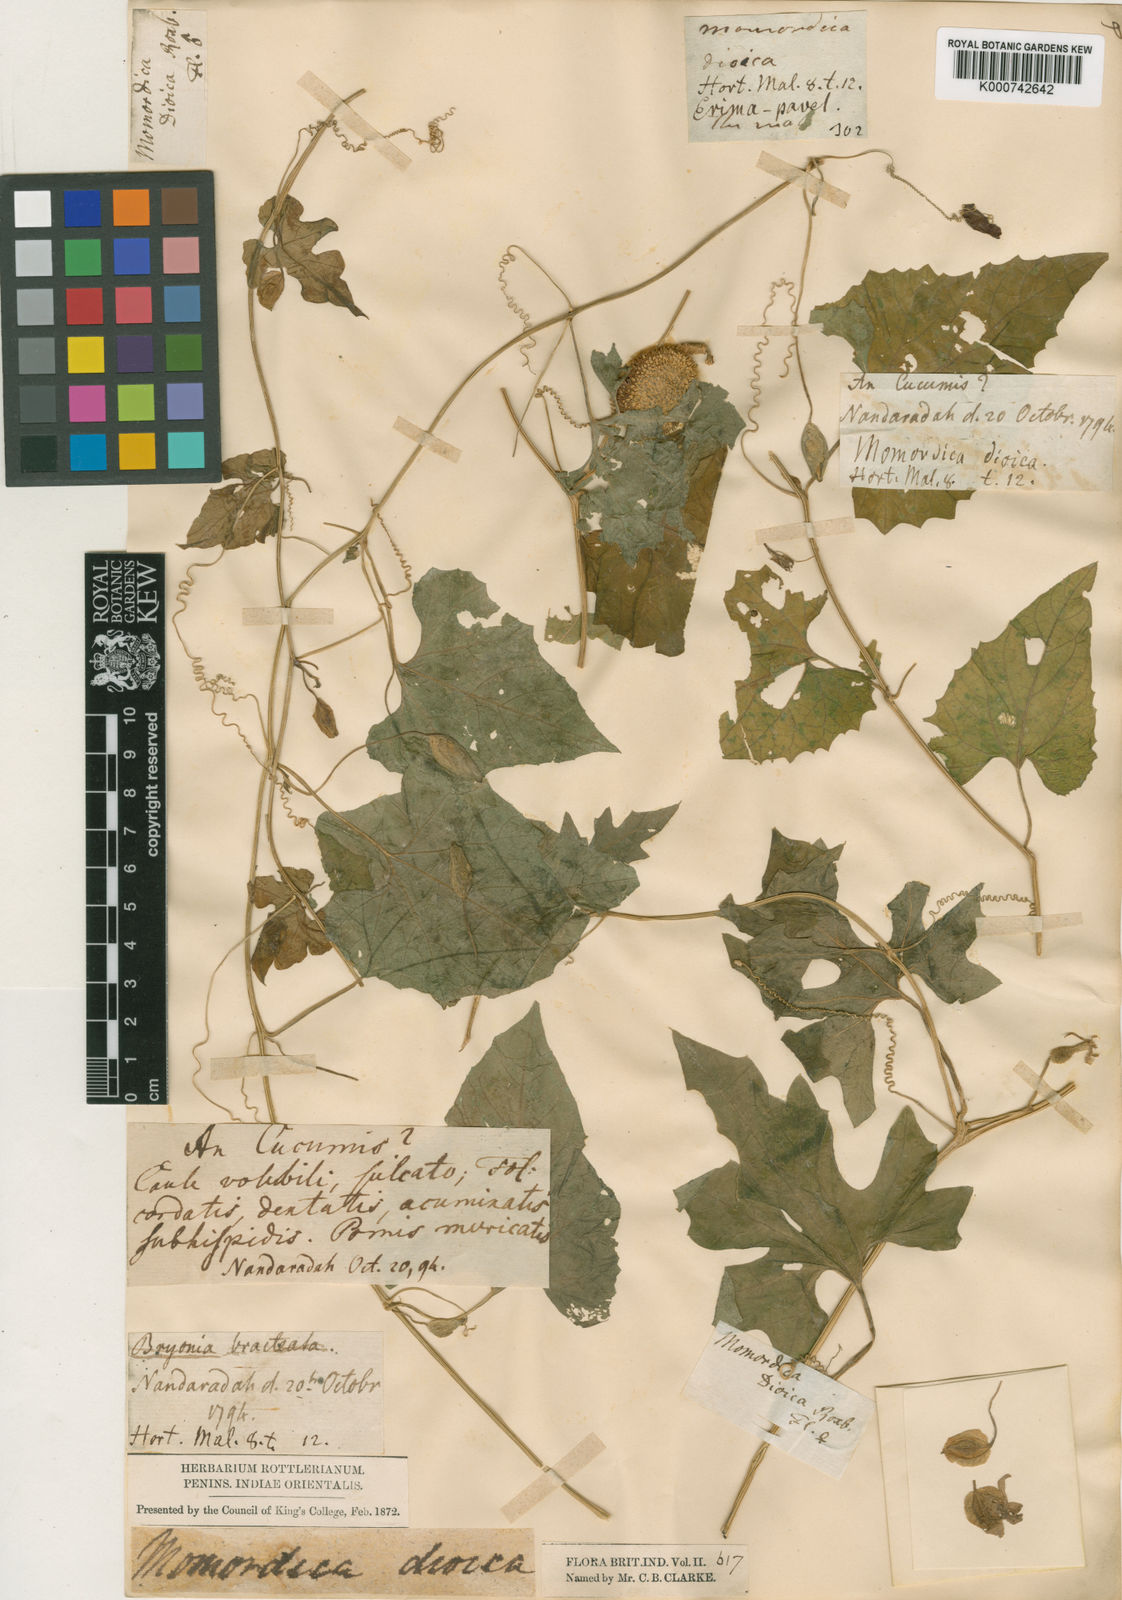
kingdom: Plantae
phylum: Tracheophyta
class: Magnoliopsida
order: Cucurbitales
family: Cucurbitaceae
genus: Momordica
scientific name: Momordica dioica
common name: Spine gourd
